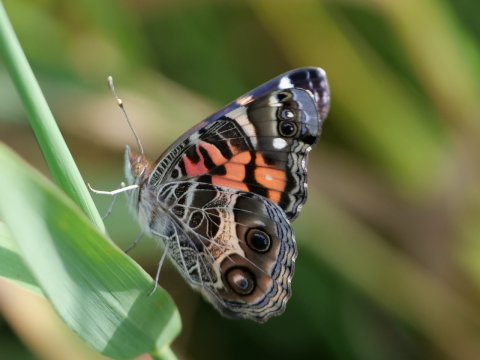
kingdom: Animalia
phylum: Arthropoda
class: Insecta
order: Lepidoptera
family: Nymphalidae
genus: Vanessa
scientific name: Vanessa virginiensis
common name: American Lady
